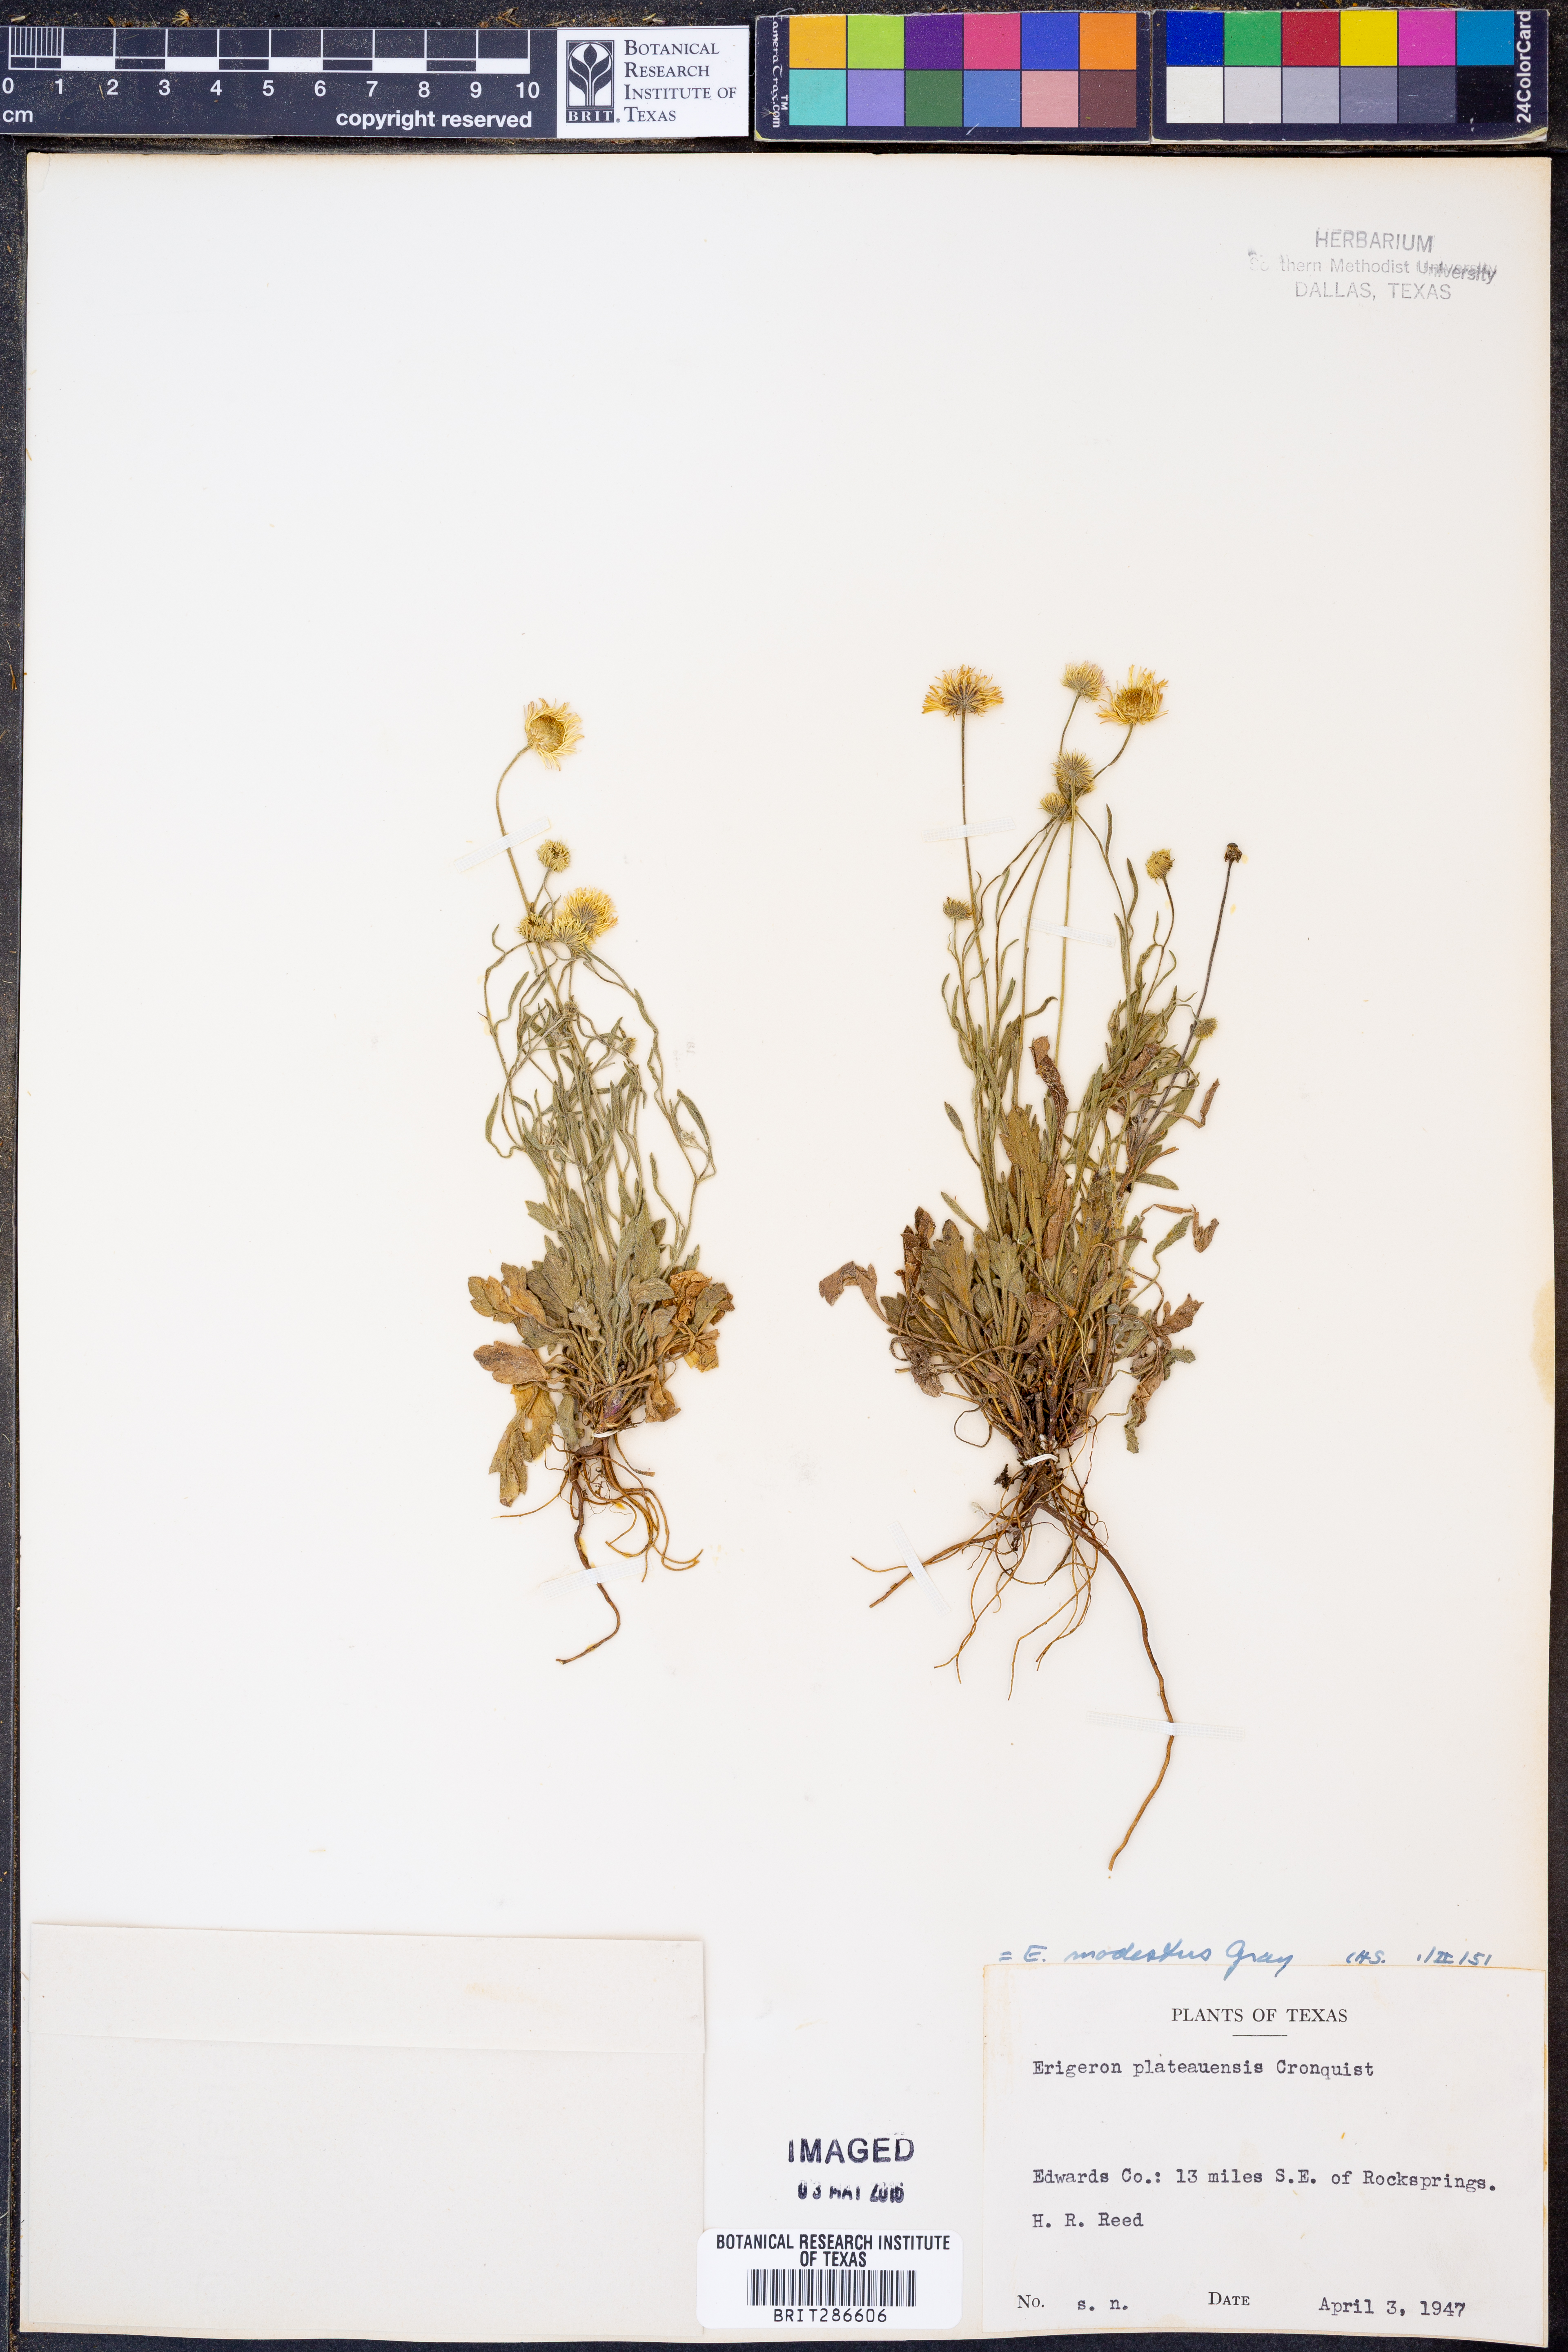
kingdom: Plantae
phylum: Tracheophyta
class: Magnoliopsida
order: Asterales
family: Asteraceae
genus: Erigeron
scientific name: Erigeron modestus
